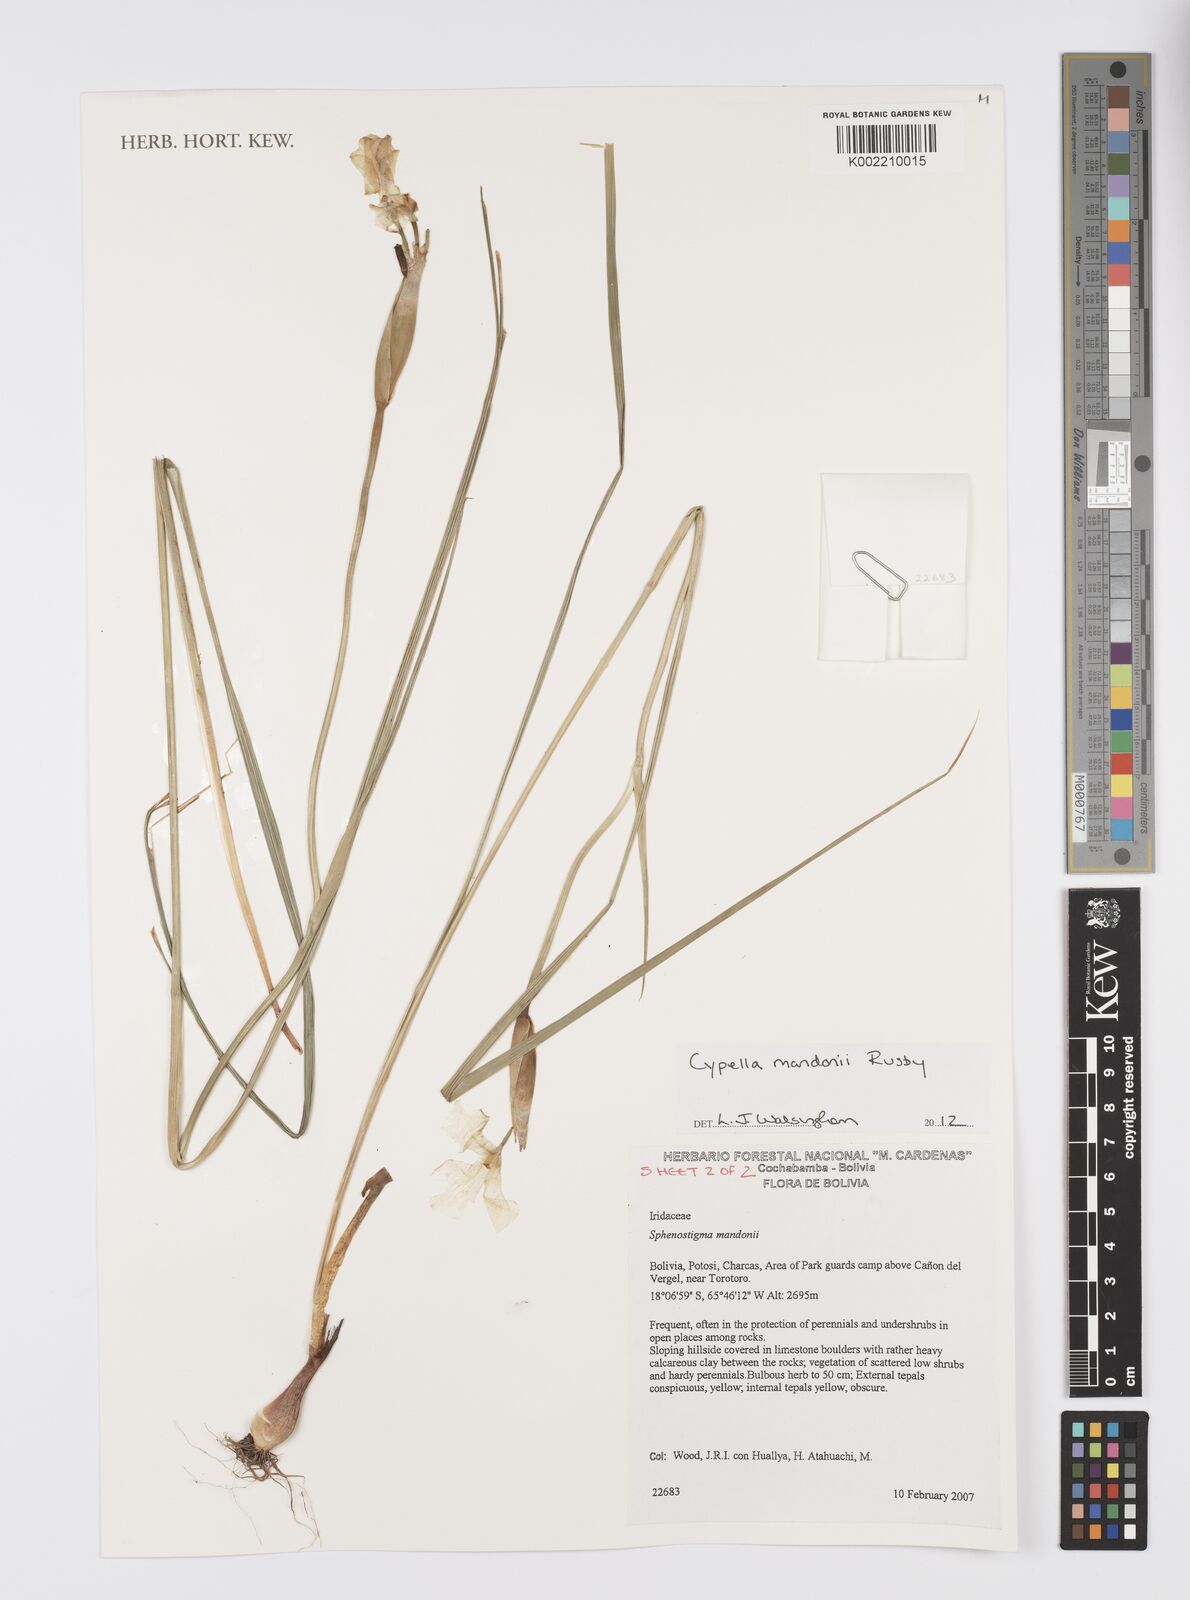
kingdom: Plantae
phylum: Tracheophyta
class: Liliopsida
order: Asparagales
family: Iridaceae
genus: Cypella
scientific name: Cypella
